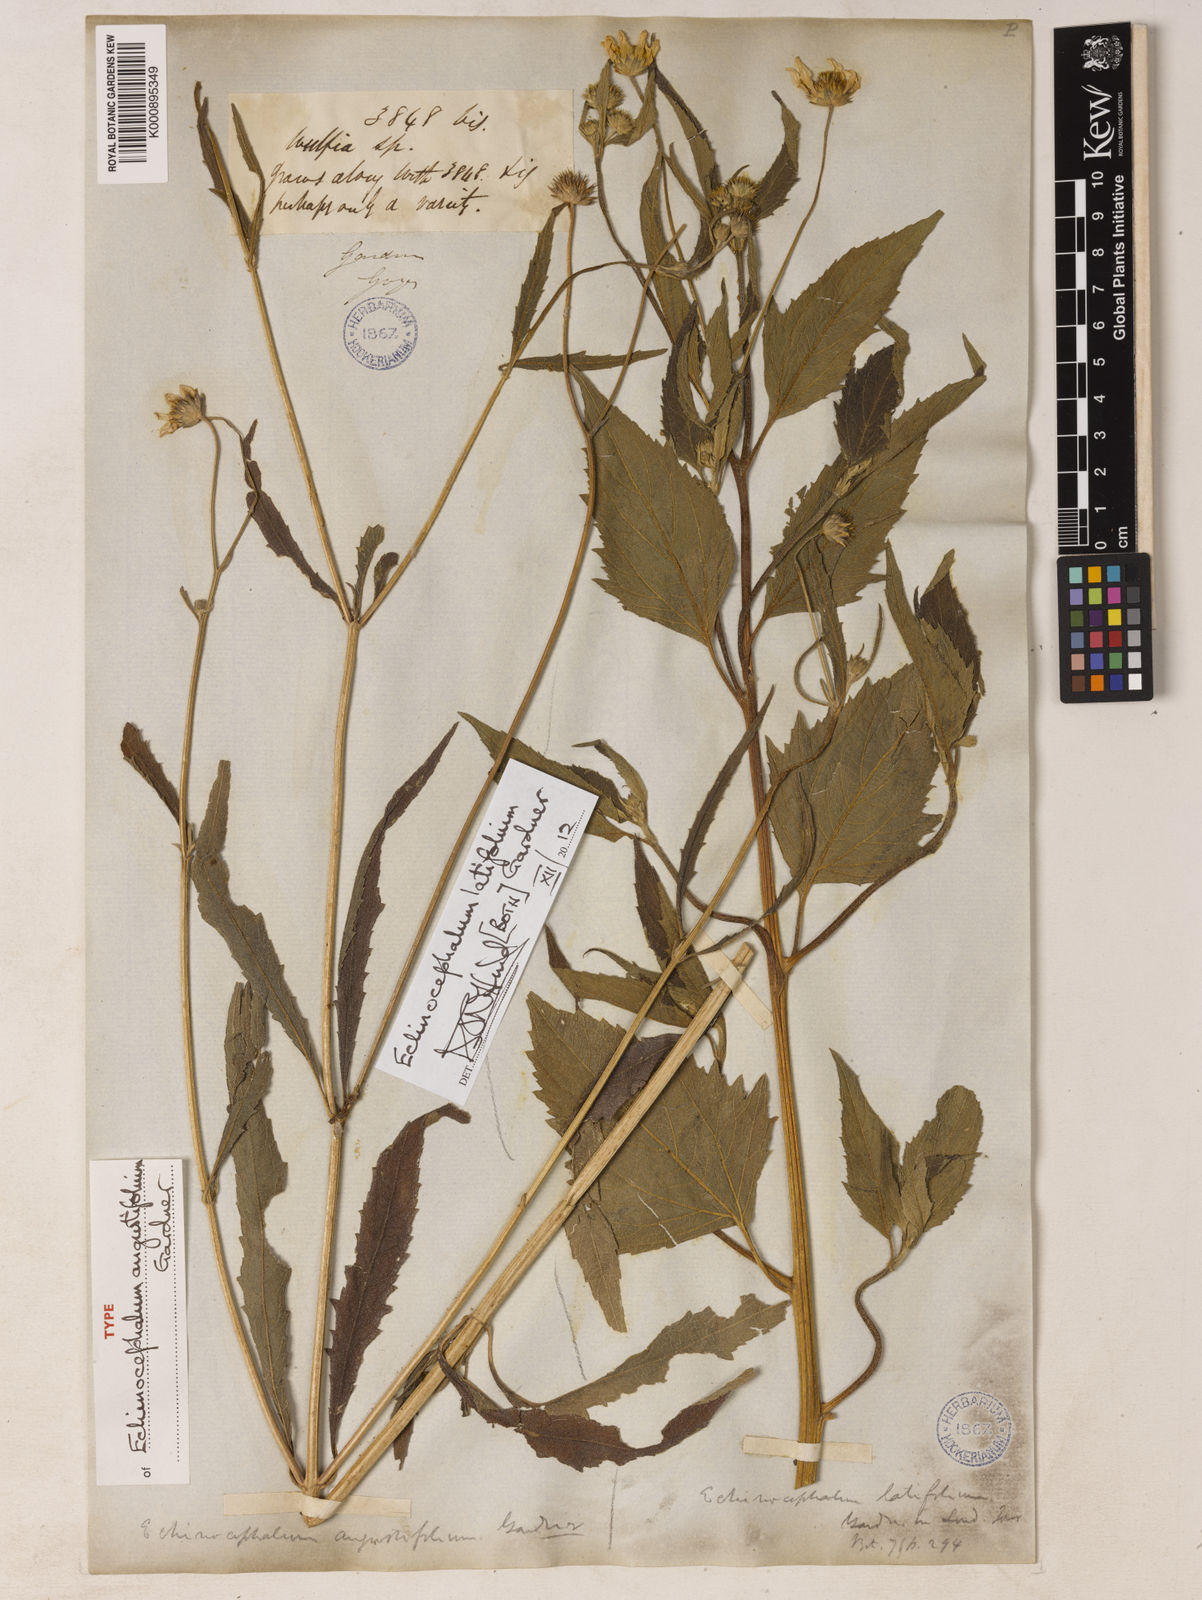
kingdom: Plantae
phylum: Tracheophyta
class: Magnoliopsida
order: Asterales
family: Asteraceae
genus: Echinocephalum
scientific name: Echinocephalum latifolium
